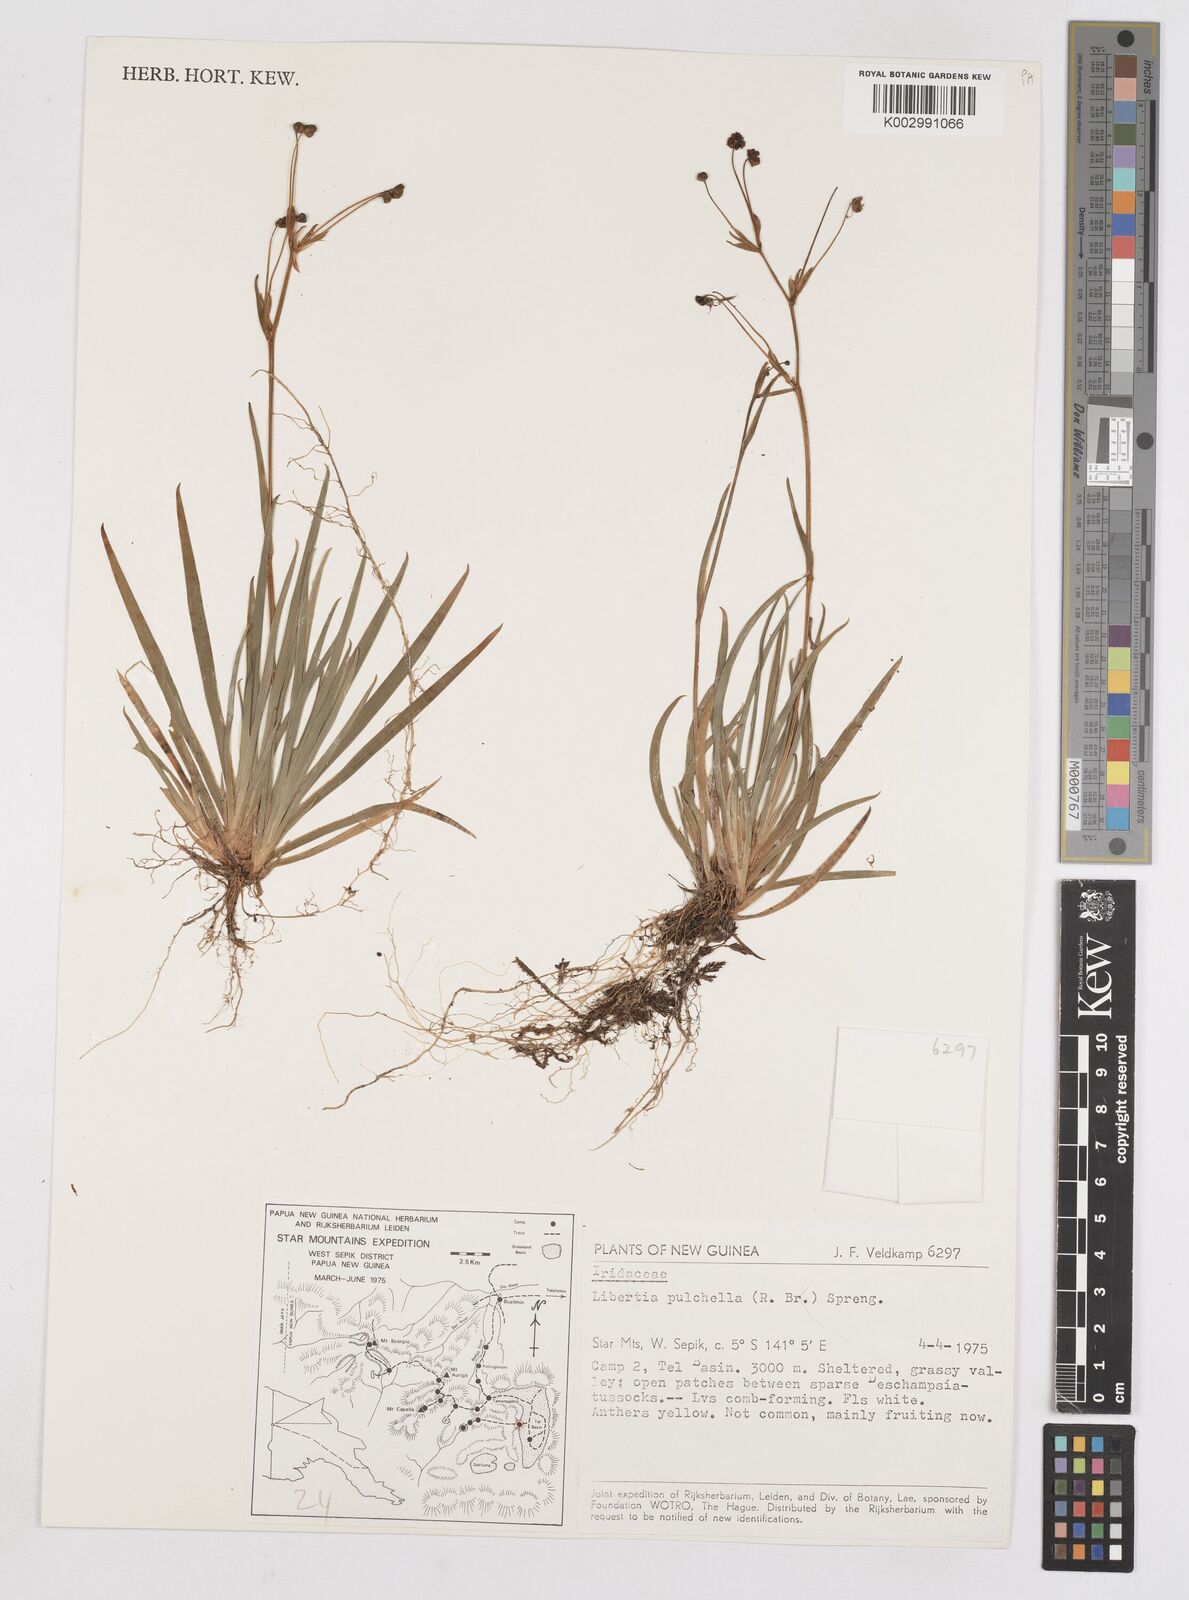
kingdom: Plantae
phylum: Tracheophyta
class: Liliopsida
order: Asparagales
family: Iridaceae
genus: Libertia
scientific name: Libertia pulchella
